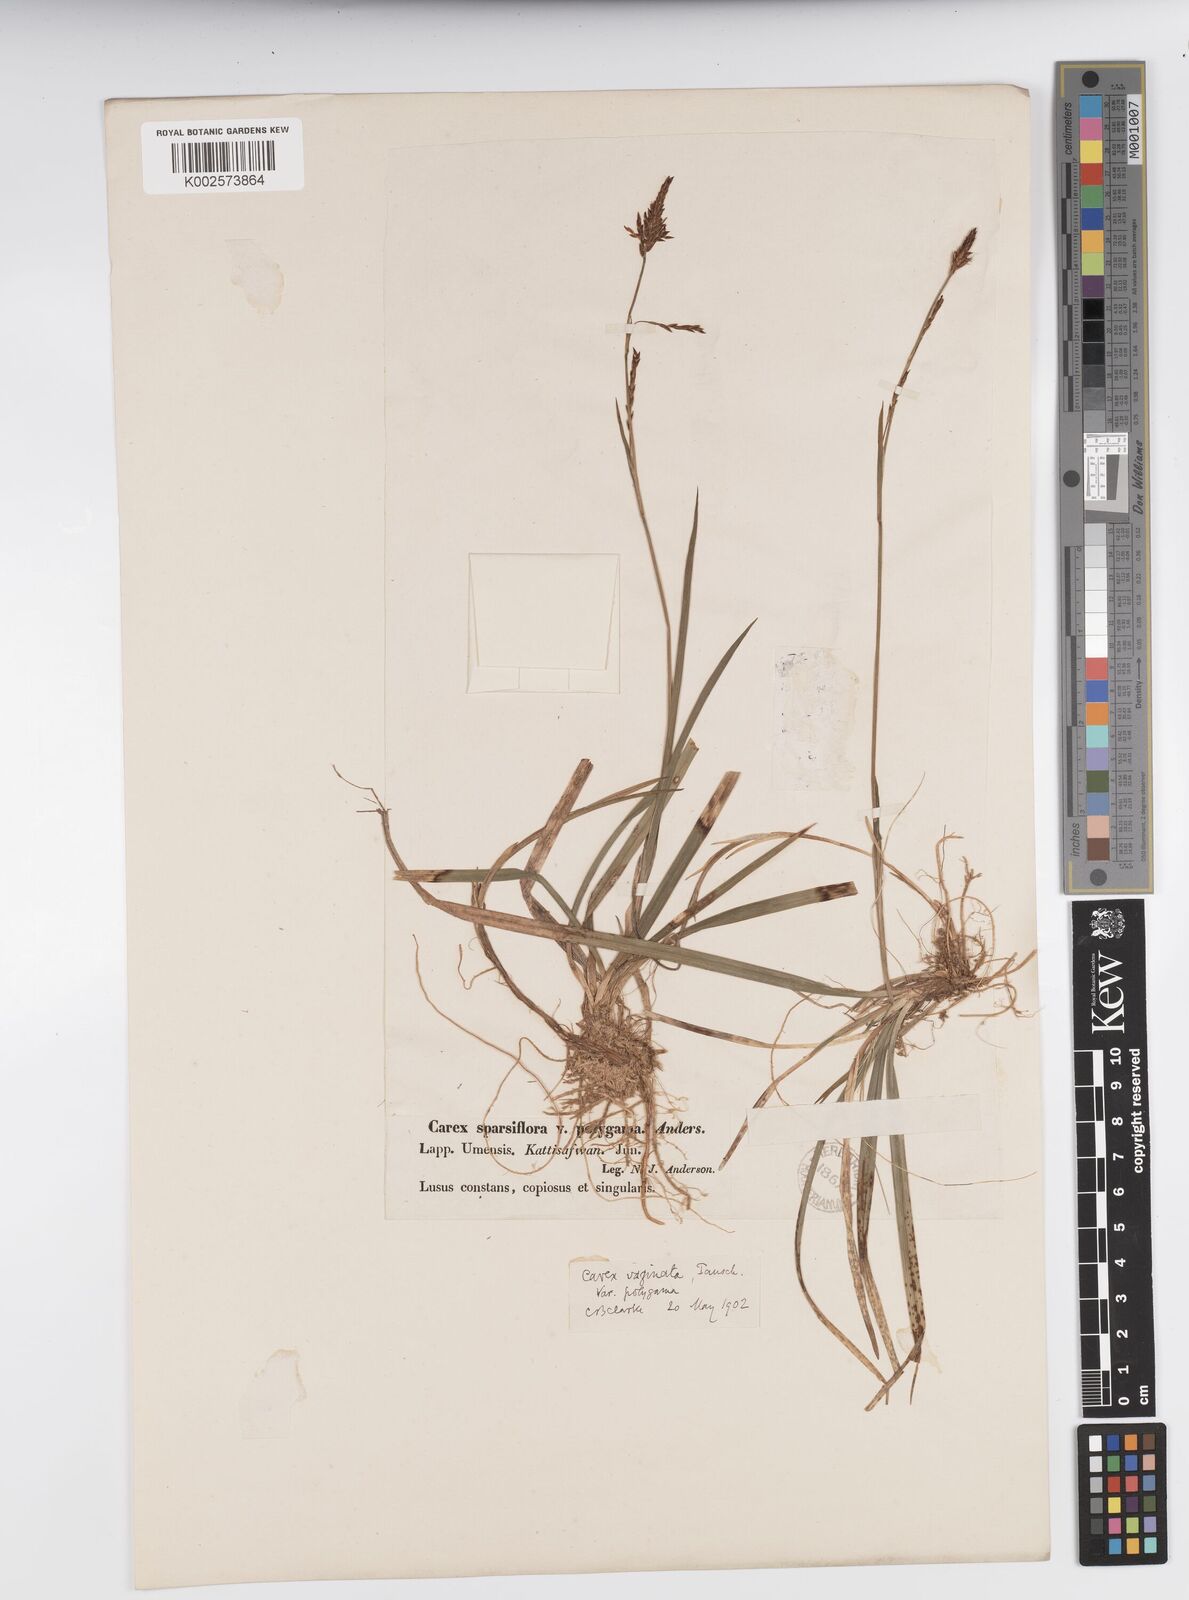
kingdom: Plantae
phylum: Tracheophyta
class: Liliopsida
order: Poales
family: Cyperaceae
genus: Carex
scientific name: Carex vaginata
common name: Sheathed sedge
